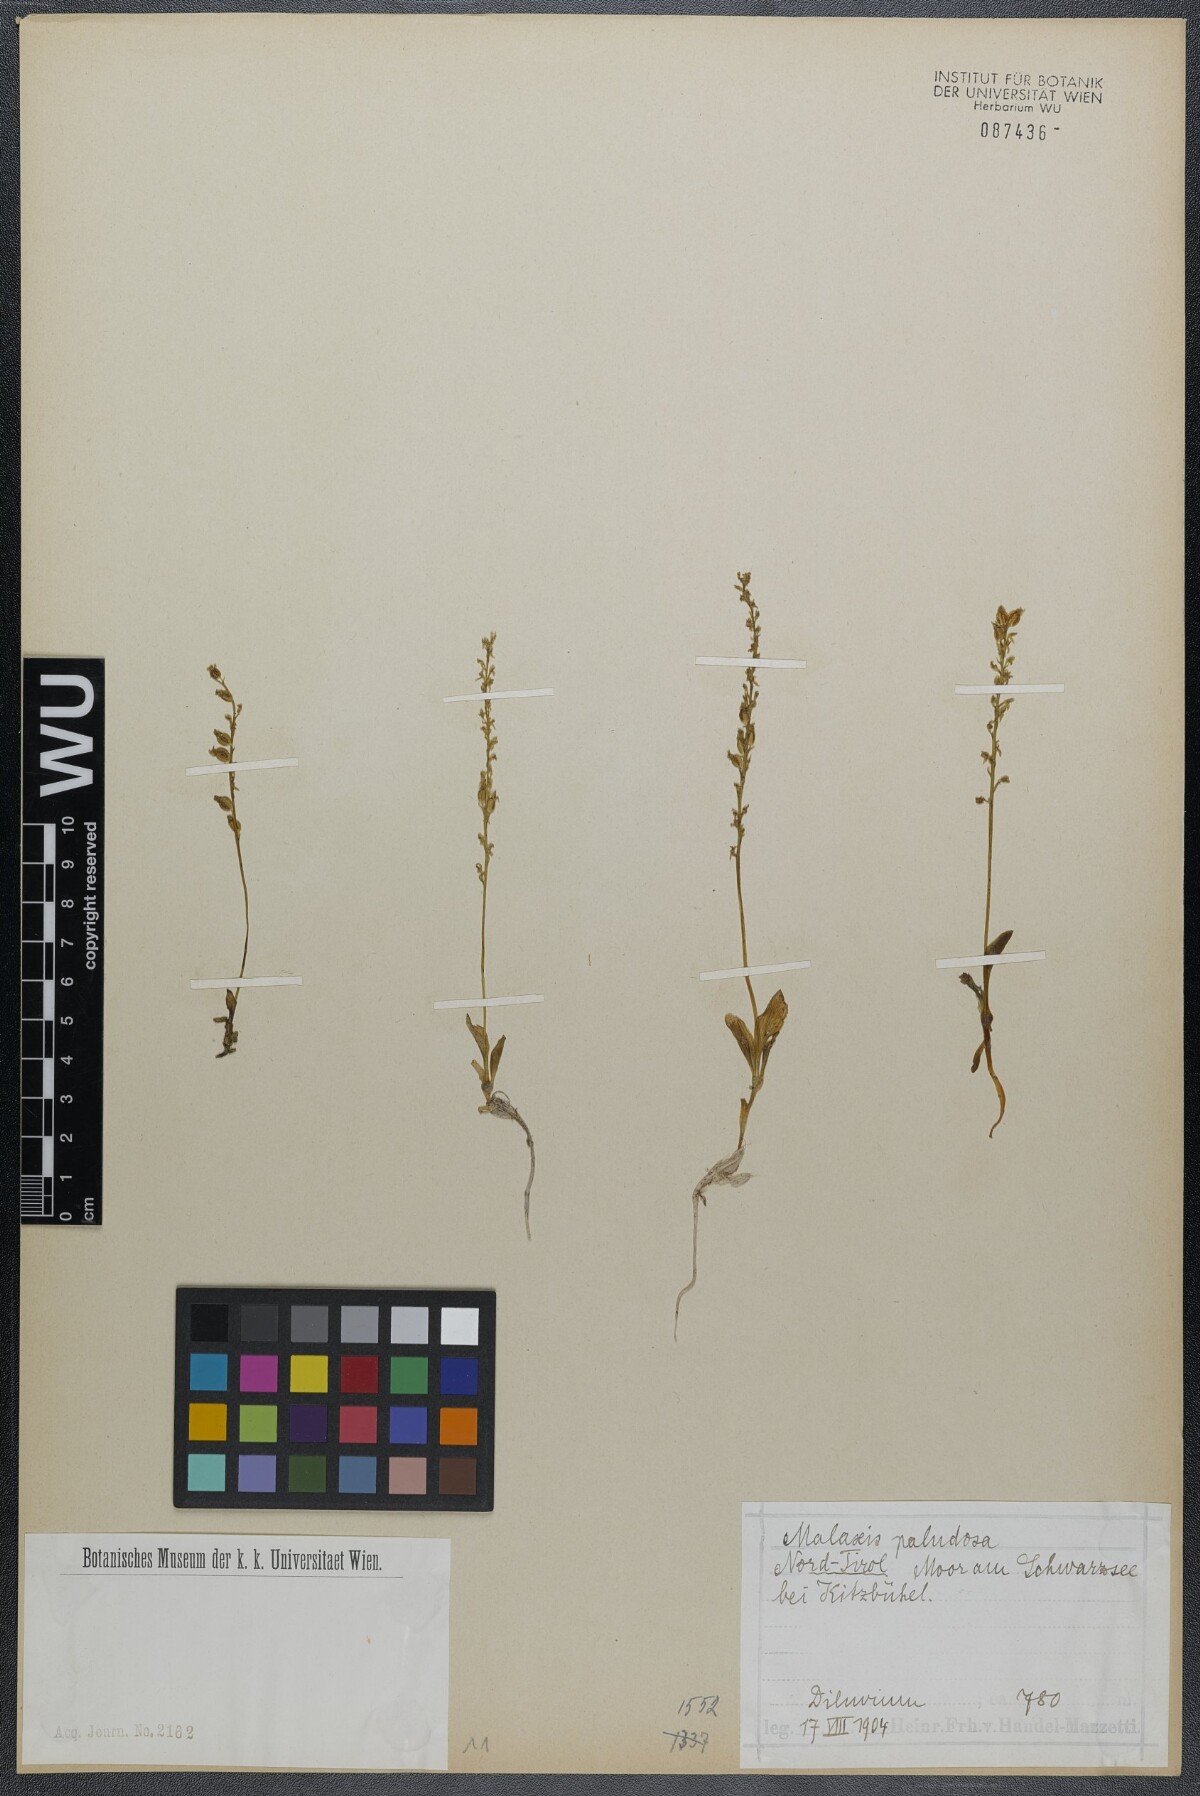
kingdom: Plantae
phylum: Tracheophyta
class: Liliopsida
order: Asparagales
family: Orchidaceae
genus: Hammarbya
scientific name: Hammarbya paludosa
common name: Bog orchid
